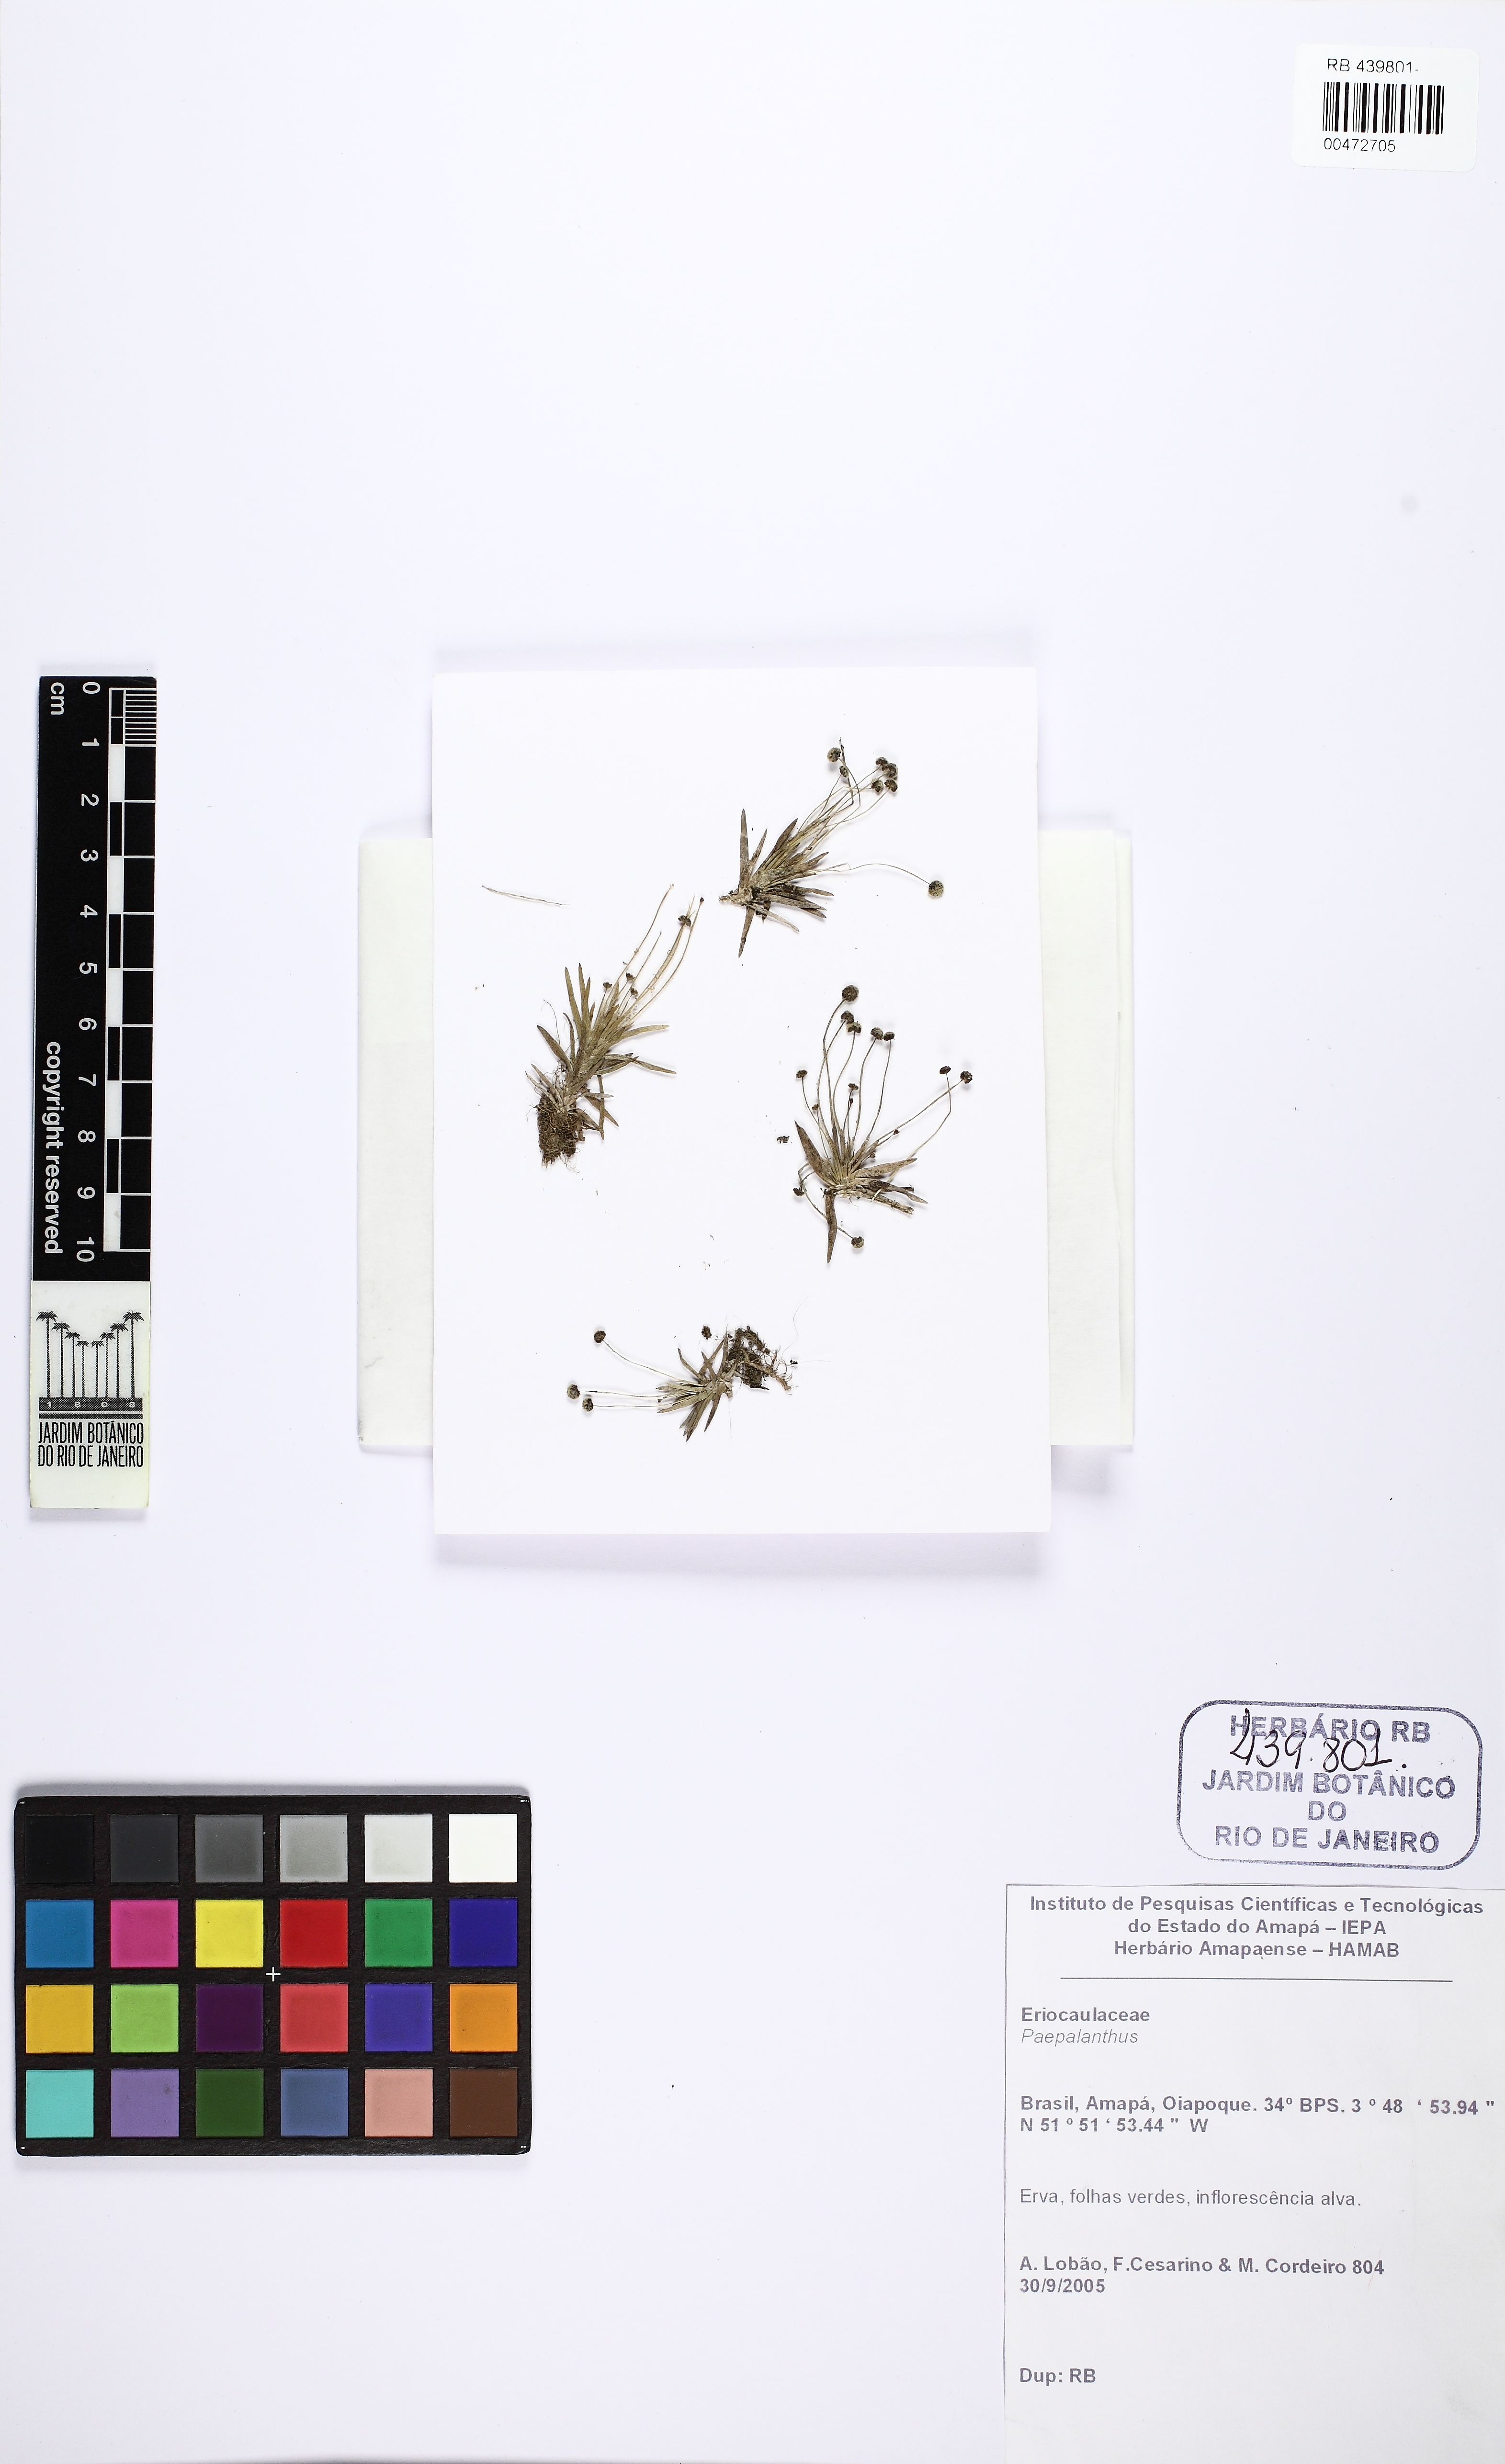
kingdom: Plantae
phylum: Tracheophyta
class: Liliopsida
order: Poales
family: Eriocaulaceae
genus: Paepalanthus
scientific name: Paepalanthus lamarckii
